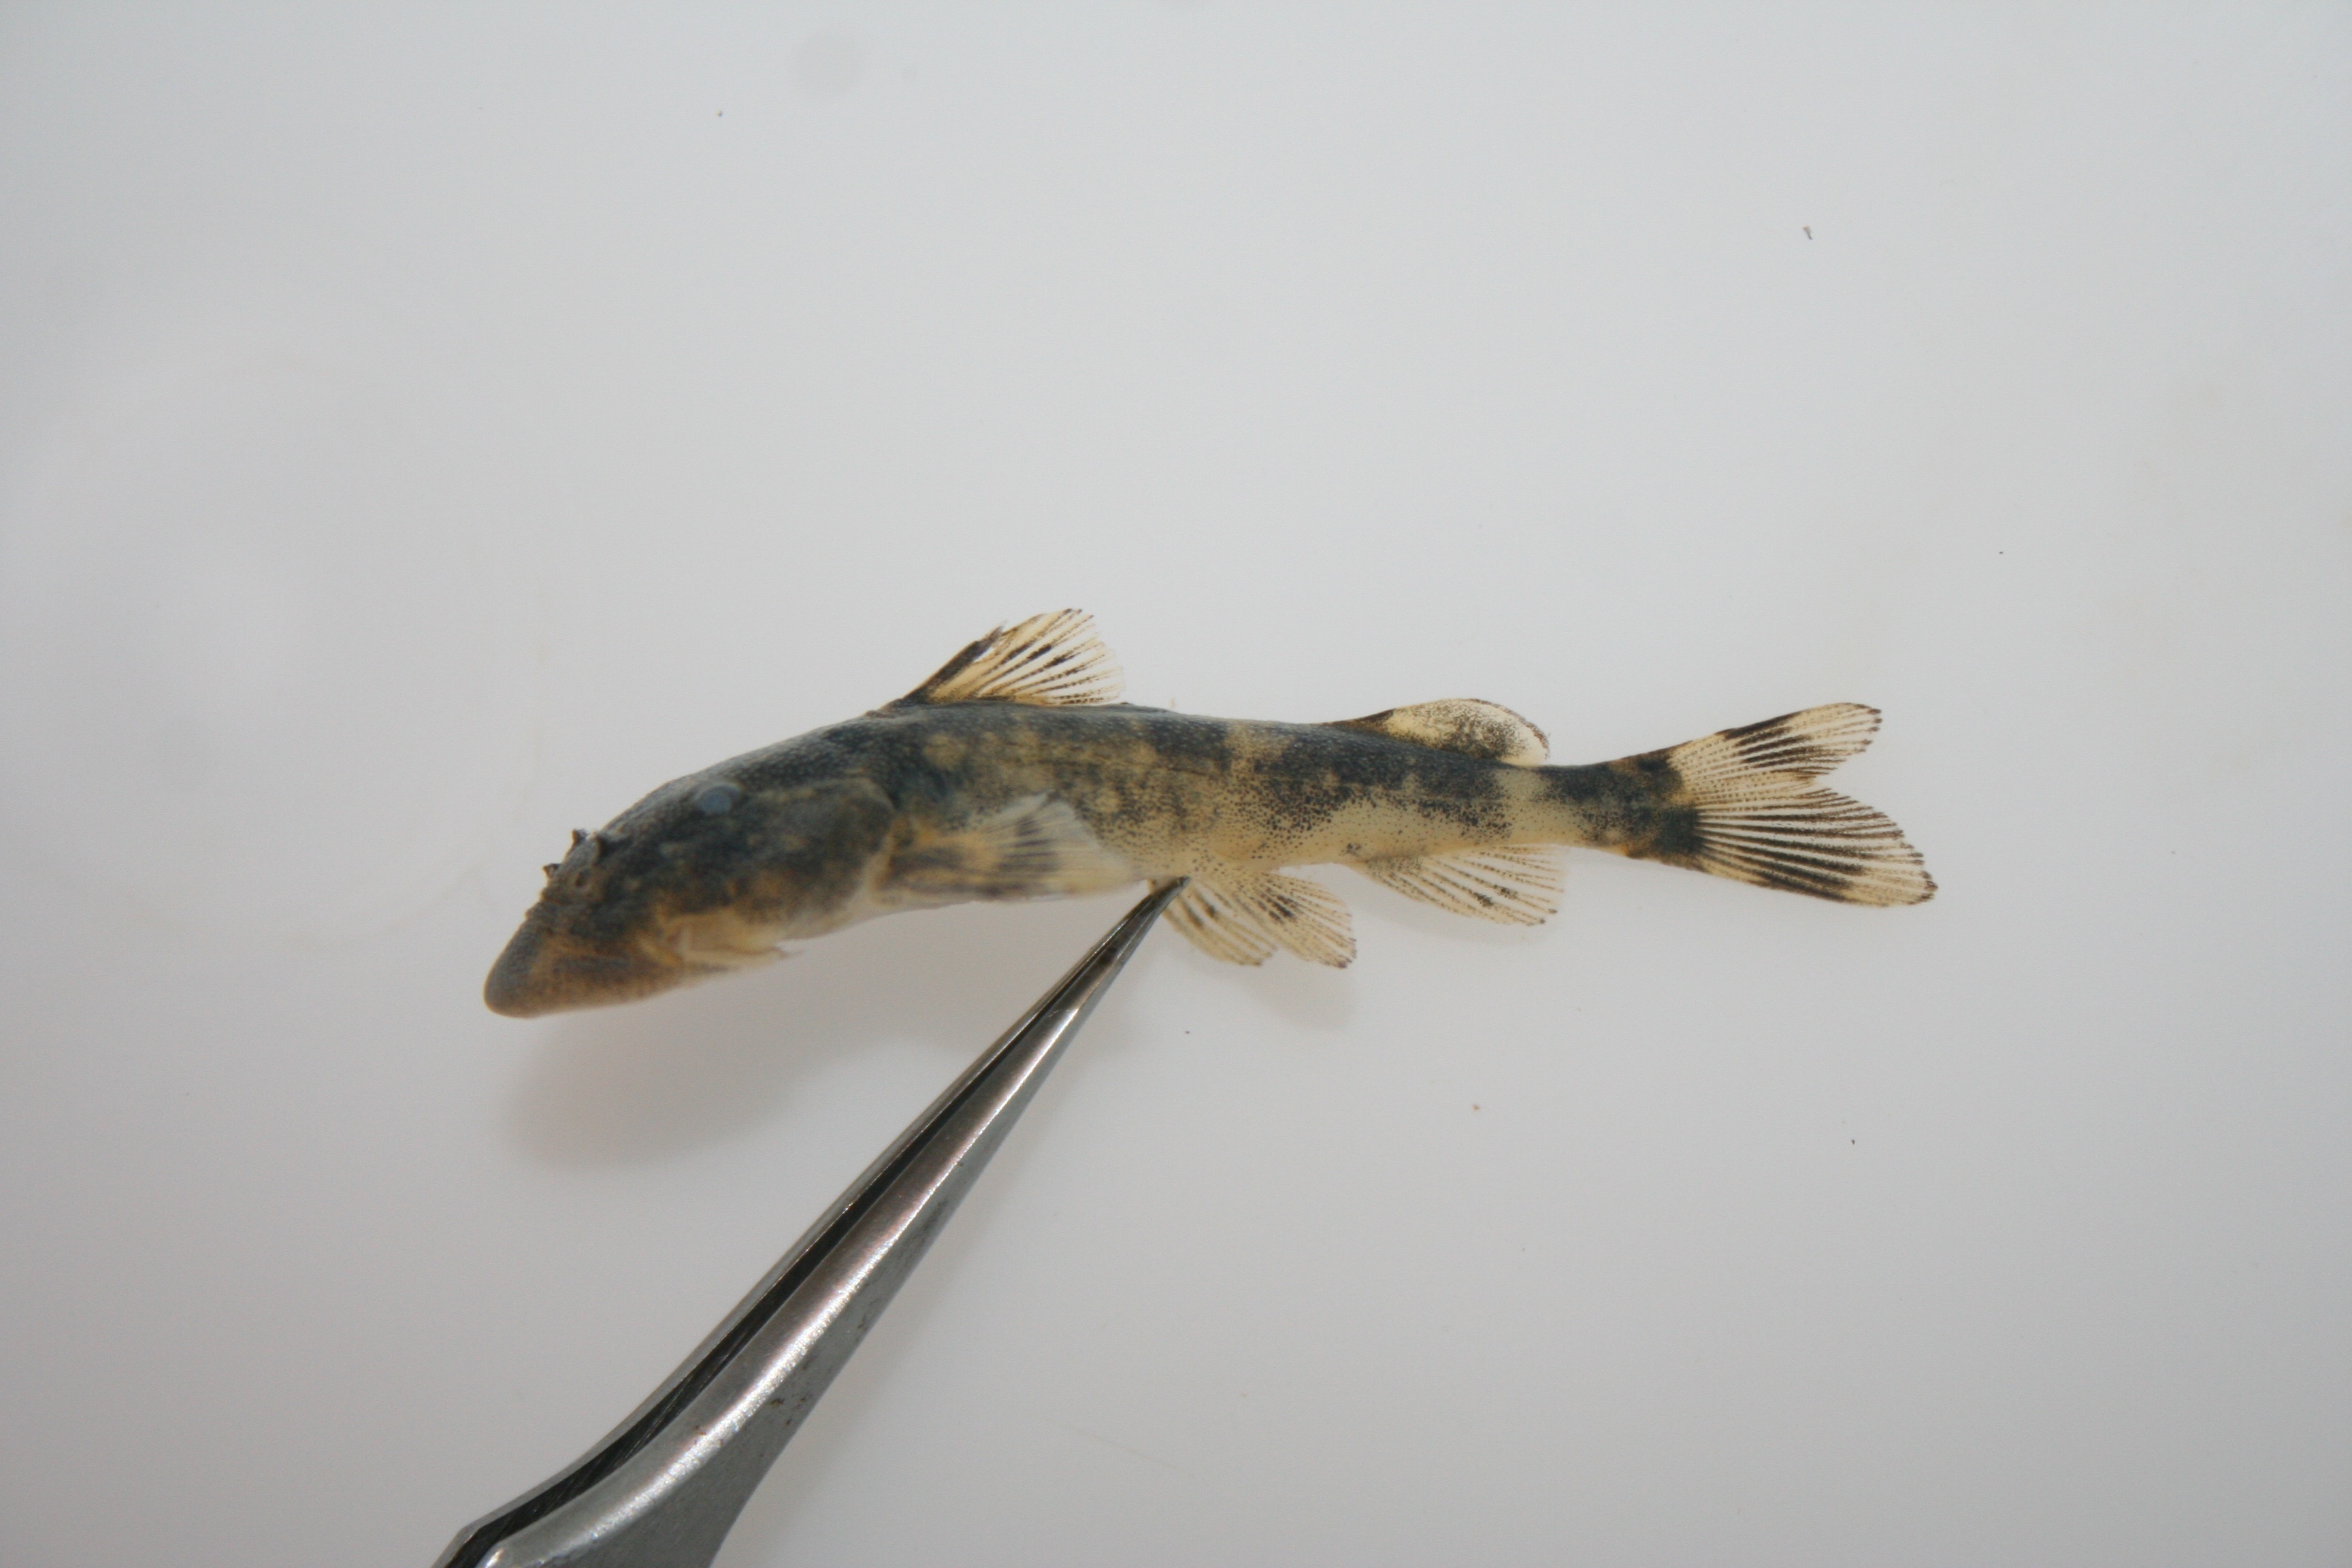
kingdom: Animalia
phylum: Chordata
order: Siluriformes
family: Mochokidae
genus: Chiloglanis
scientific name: Chiloglanis
